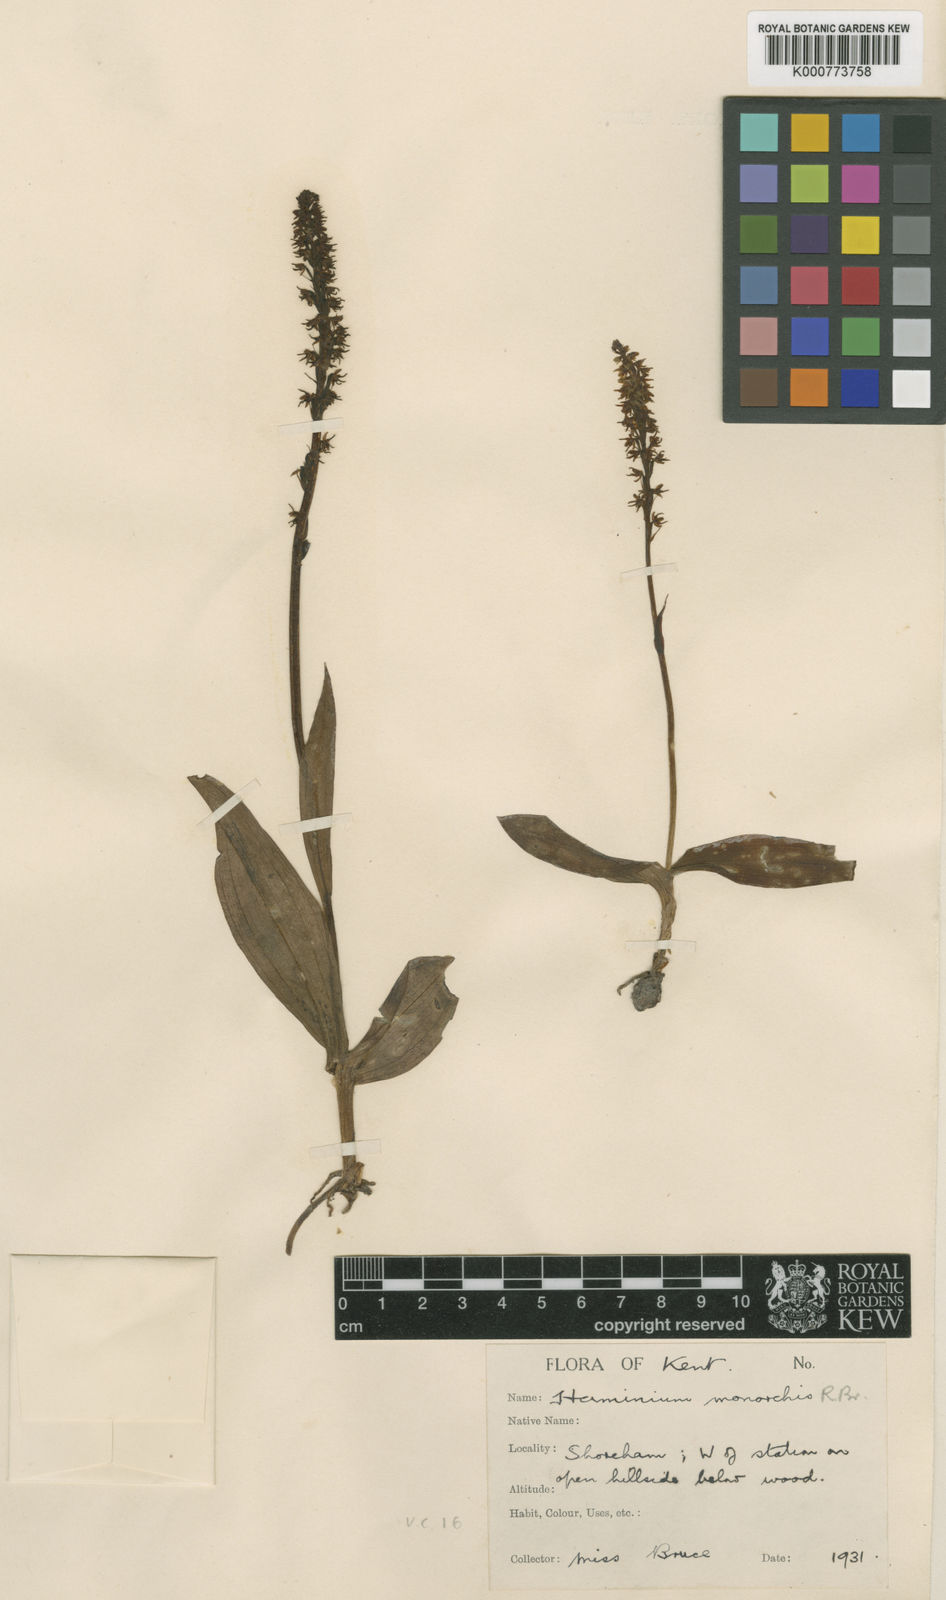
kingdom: Plantae
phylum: Tracheophyta
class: Liliopsida
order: Asparagales
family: Orchidaceae
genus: Herminium
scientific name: Herminium monorchis
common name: Musk orchid
